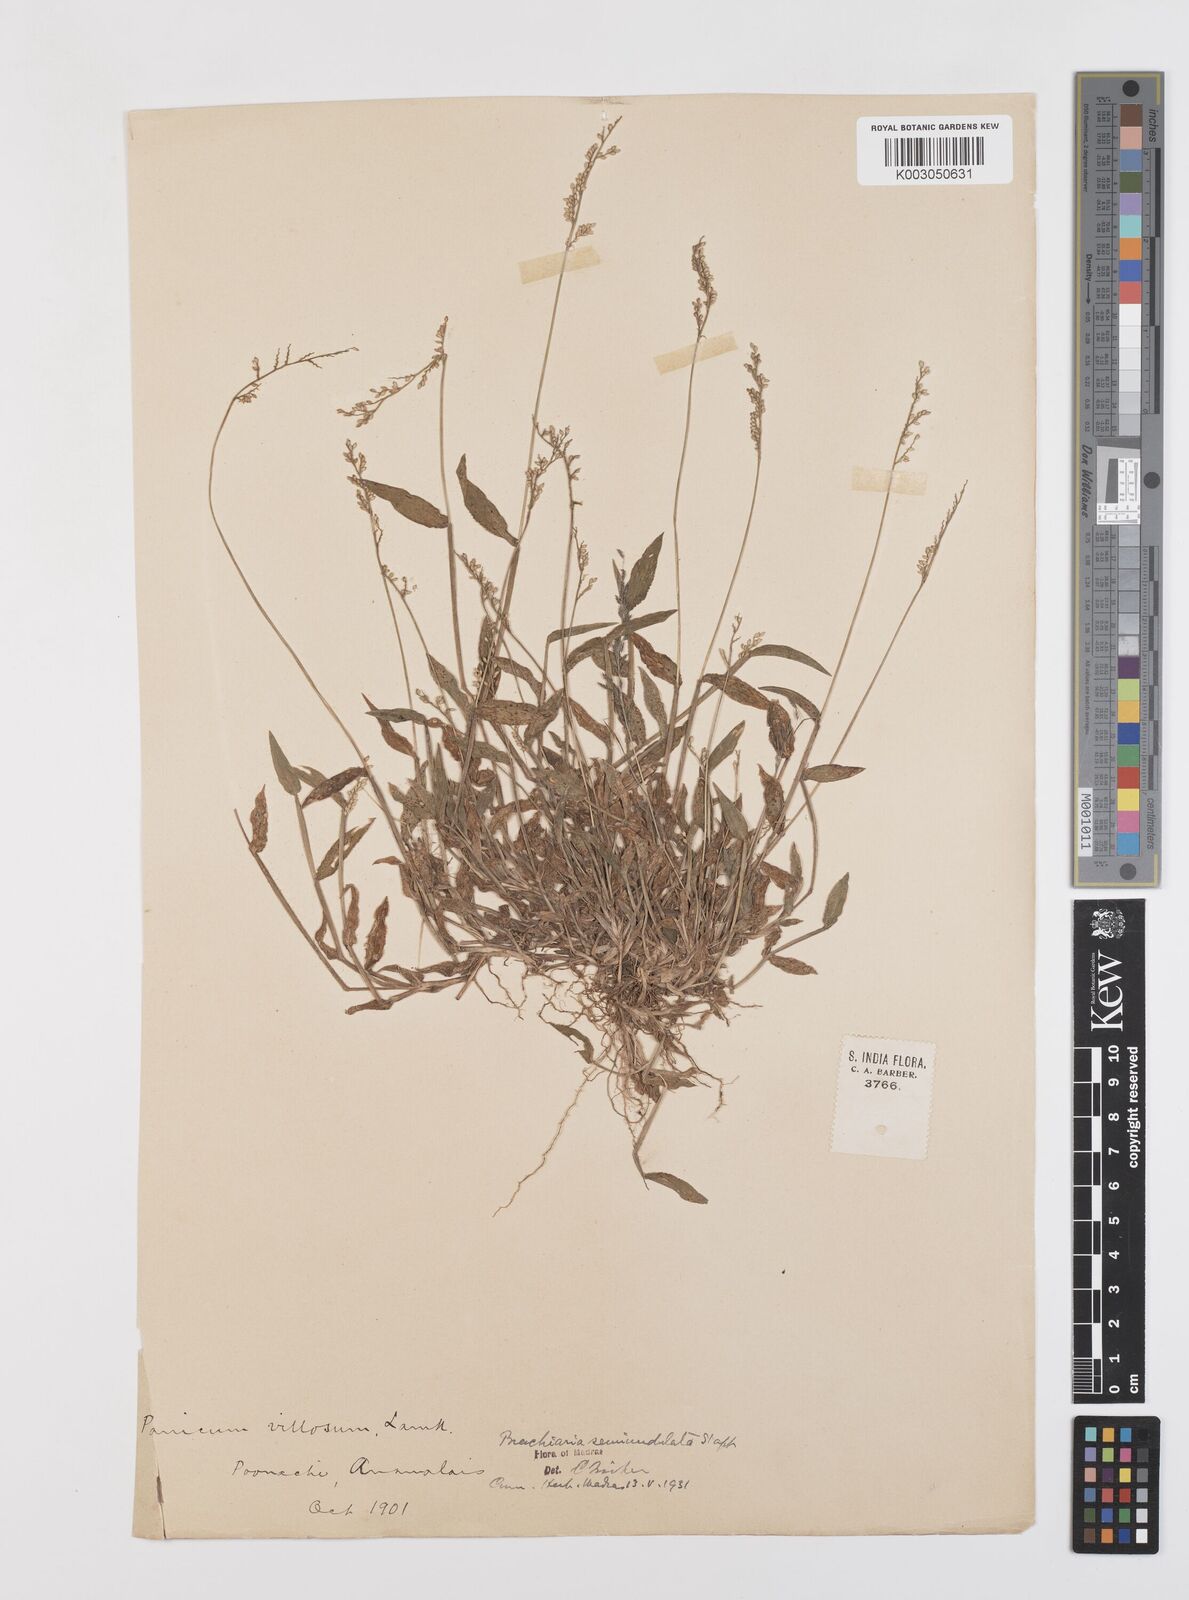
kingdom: Plantae
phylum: Tracheophyta
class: Liliopsida
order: Poales
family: Poaceae
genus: Urochloa
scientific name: Urochloa semiundulata
